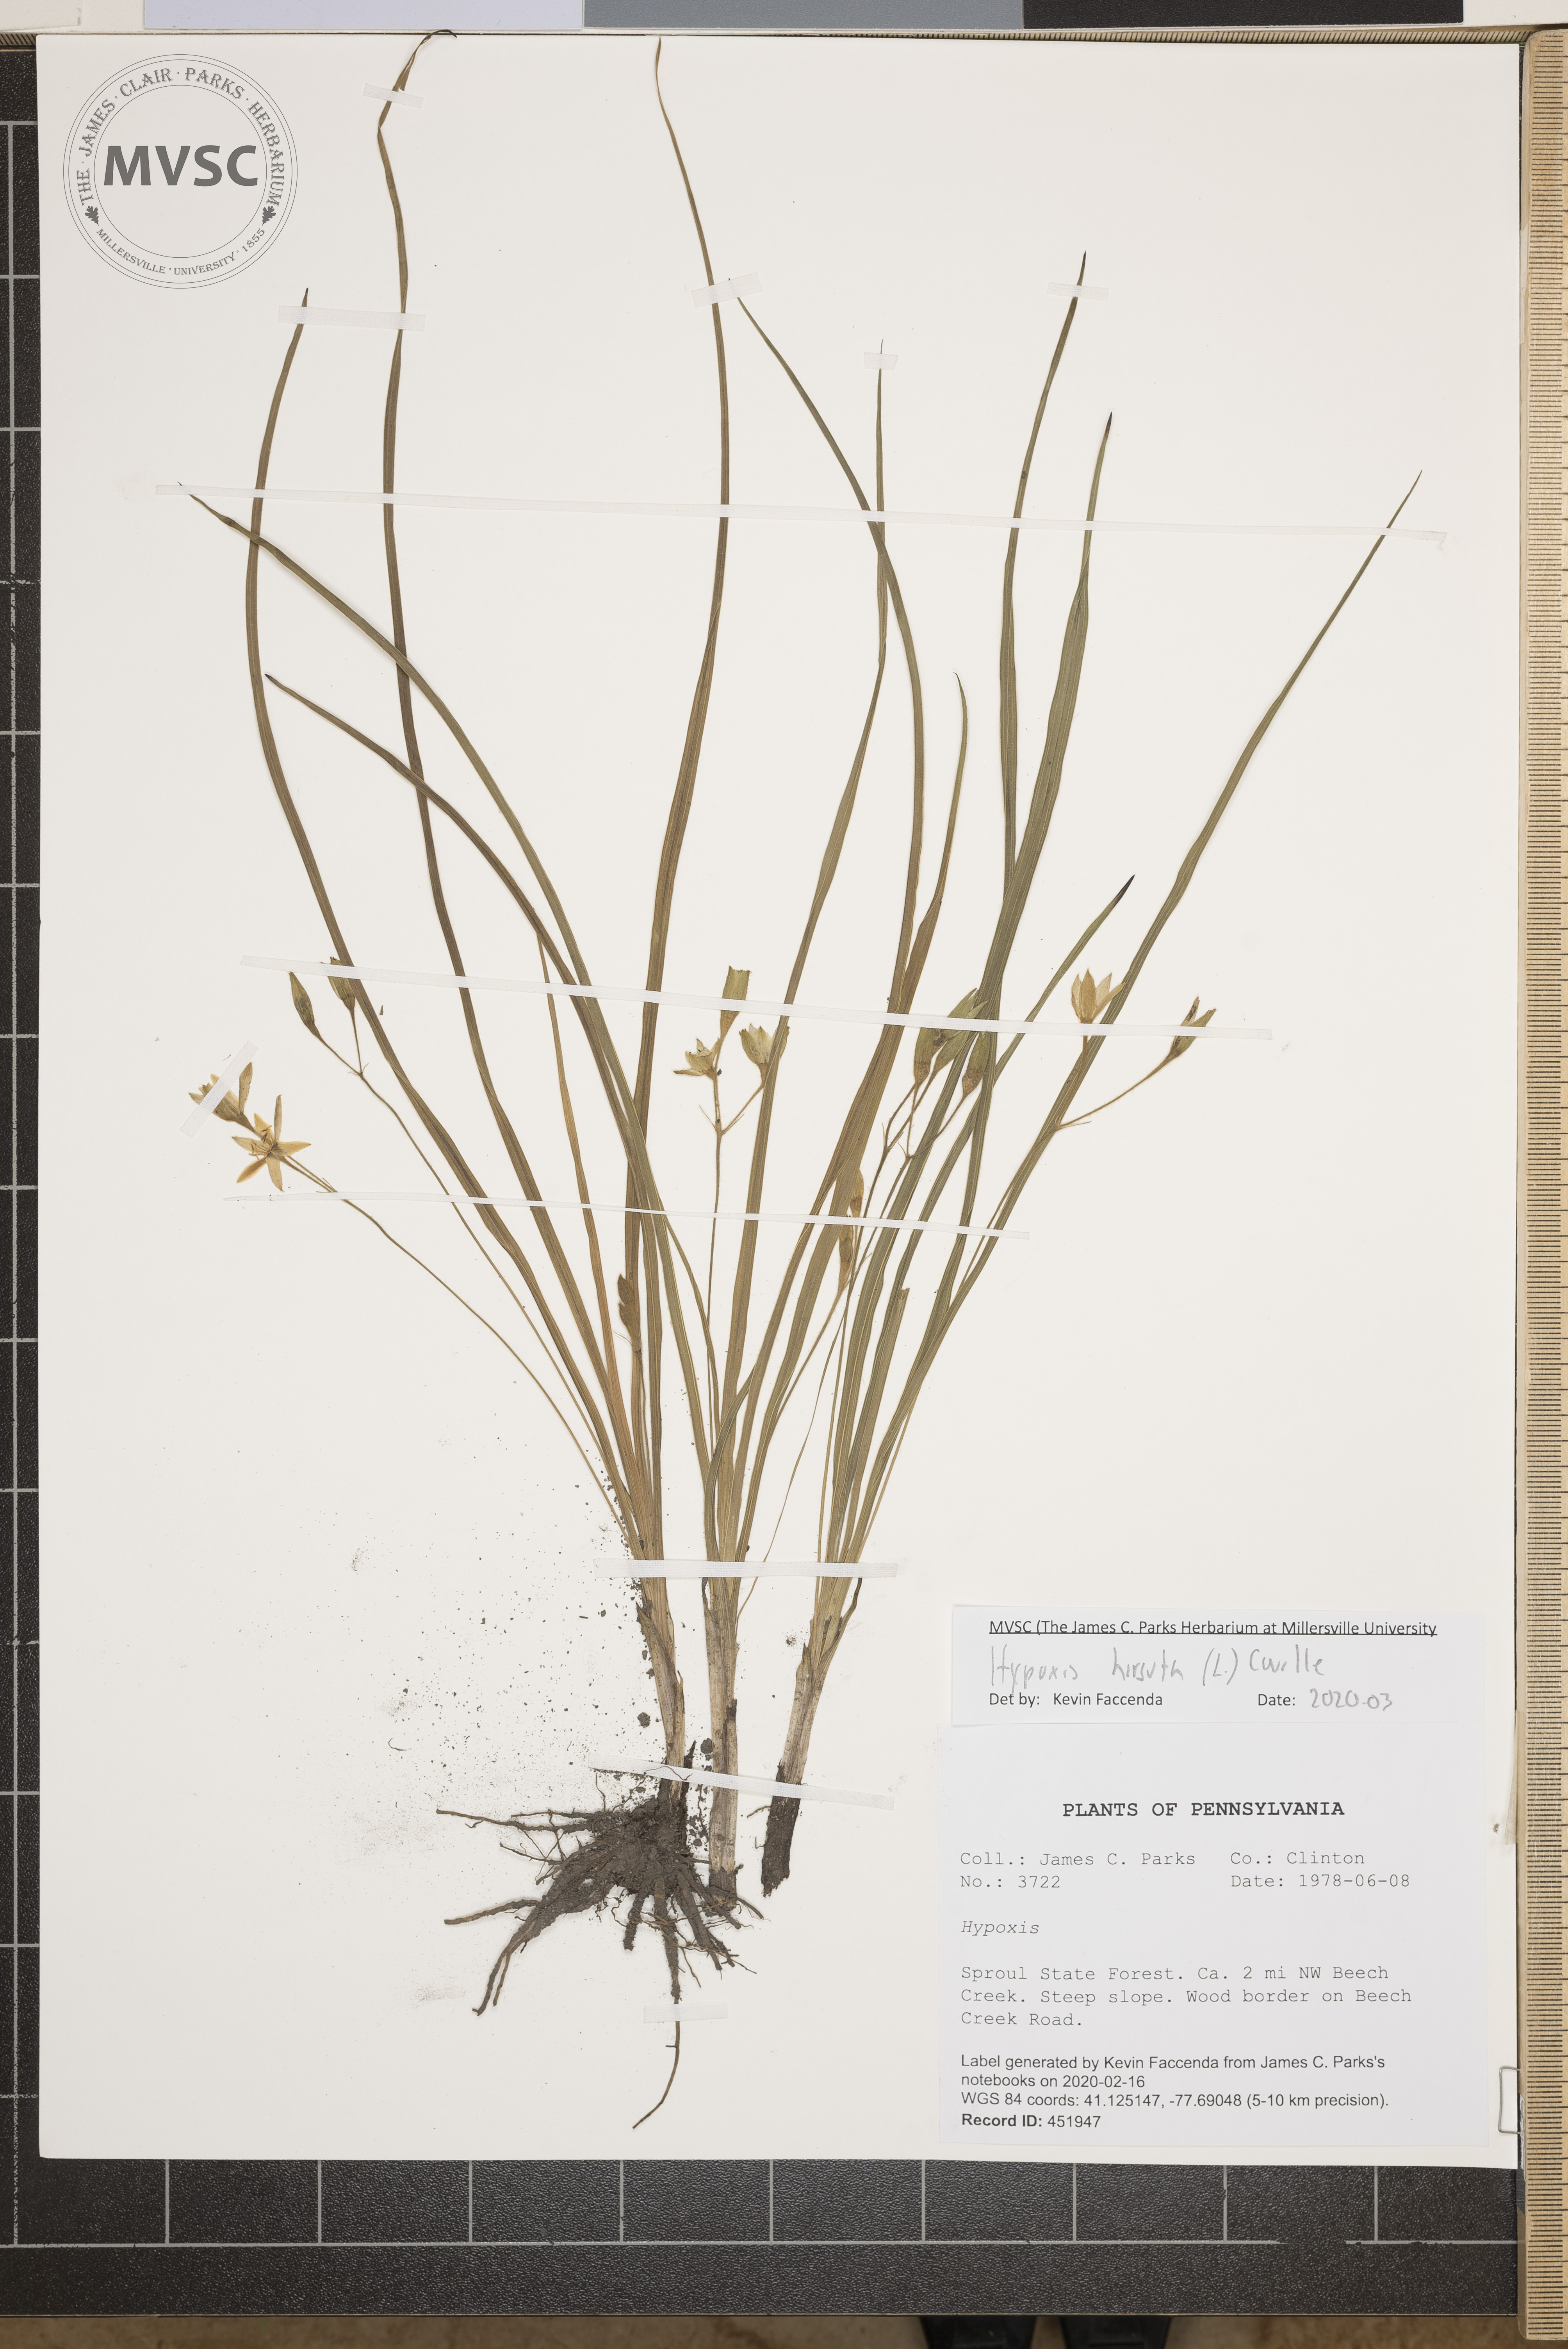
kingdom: Plantae
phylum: Tracheophyta
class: Liliopsida
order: Asparagales
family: Hypoxidaceae
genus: Hypoxis
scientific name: Hypoxis hirsuta
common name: Common goldstar
